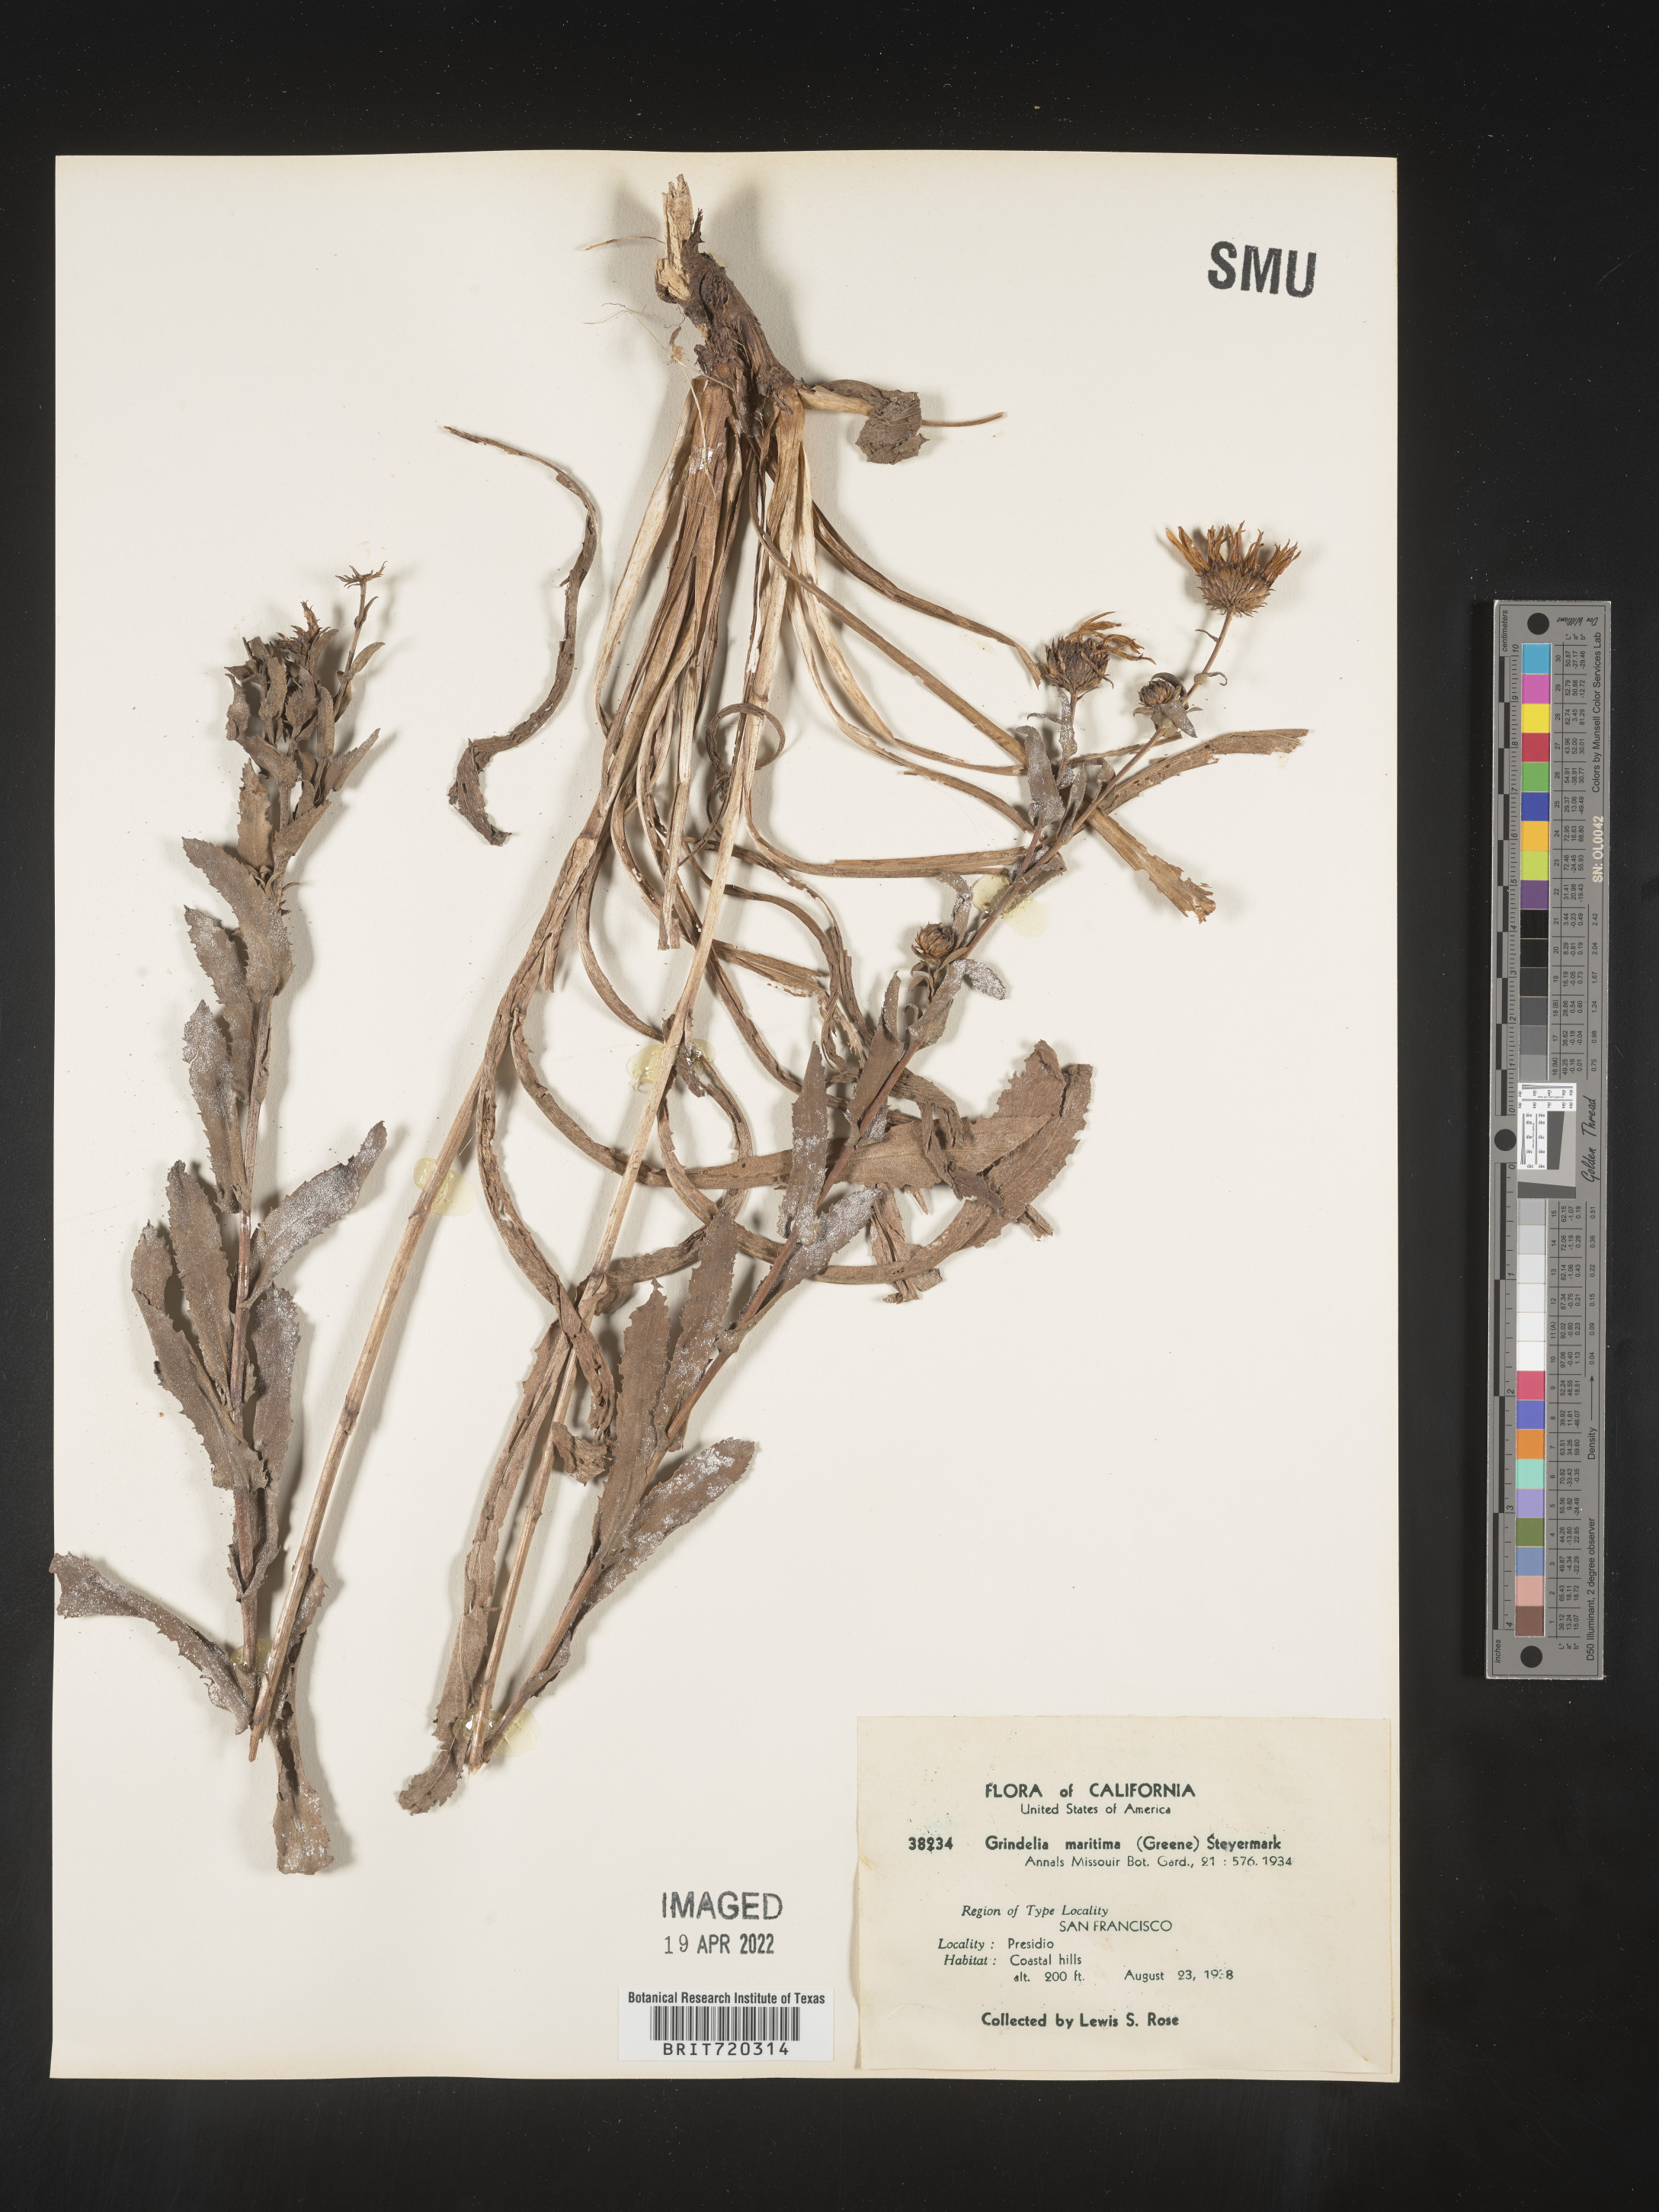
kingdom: Plantae
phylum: Tracheophyta
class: Magnoliopsida
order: Asterales
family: Asteraceae
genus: Grindelia
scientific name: Grindelia hirsutula
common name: Hairy gumweed
